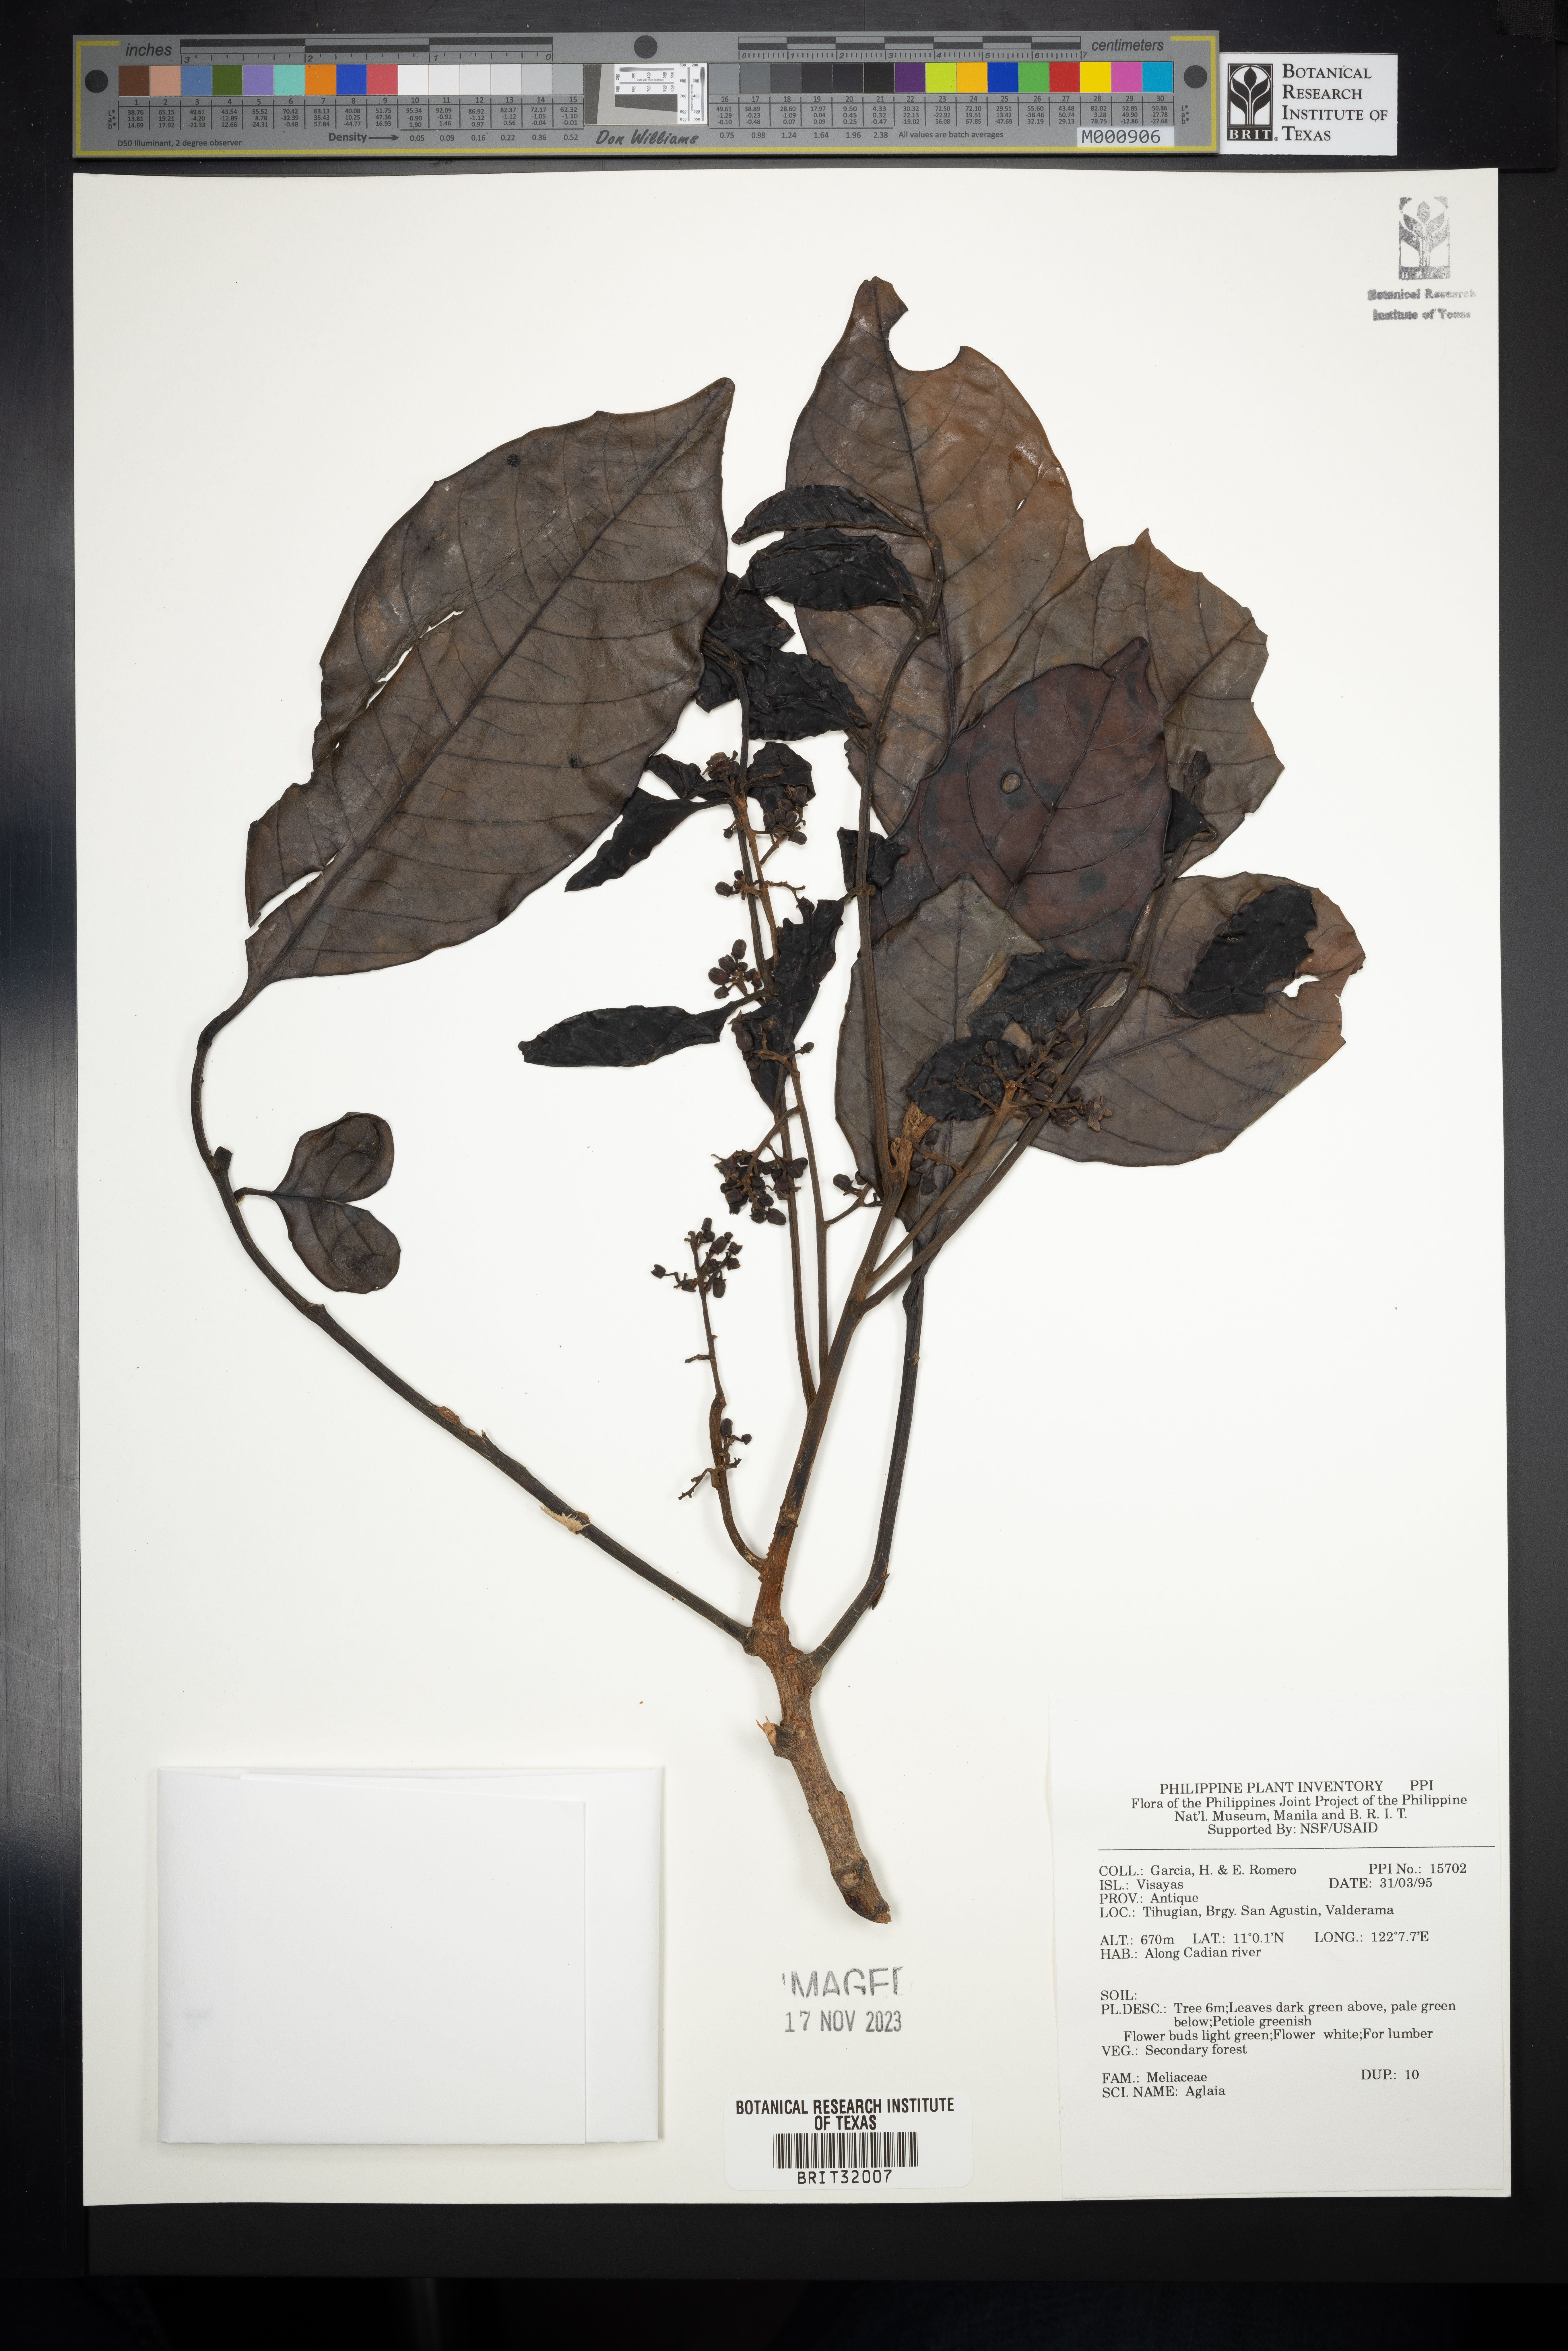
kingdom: Plantae
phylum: Tracheophyta
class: Magnoliopsida
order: Sapindales
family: Meliaceae
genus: Aglaia
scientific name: Aglaia
